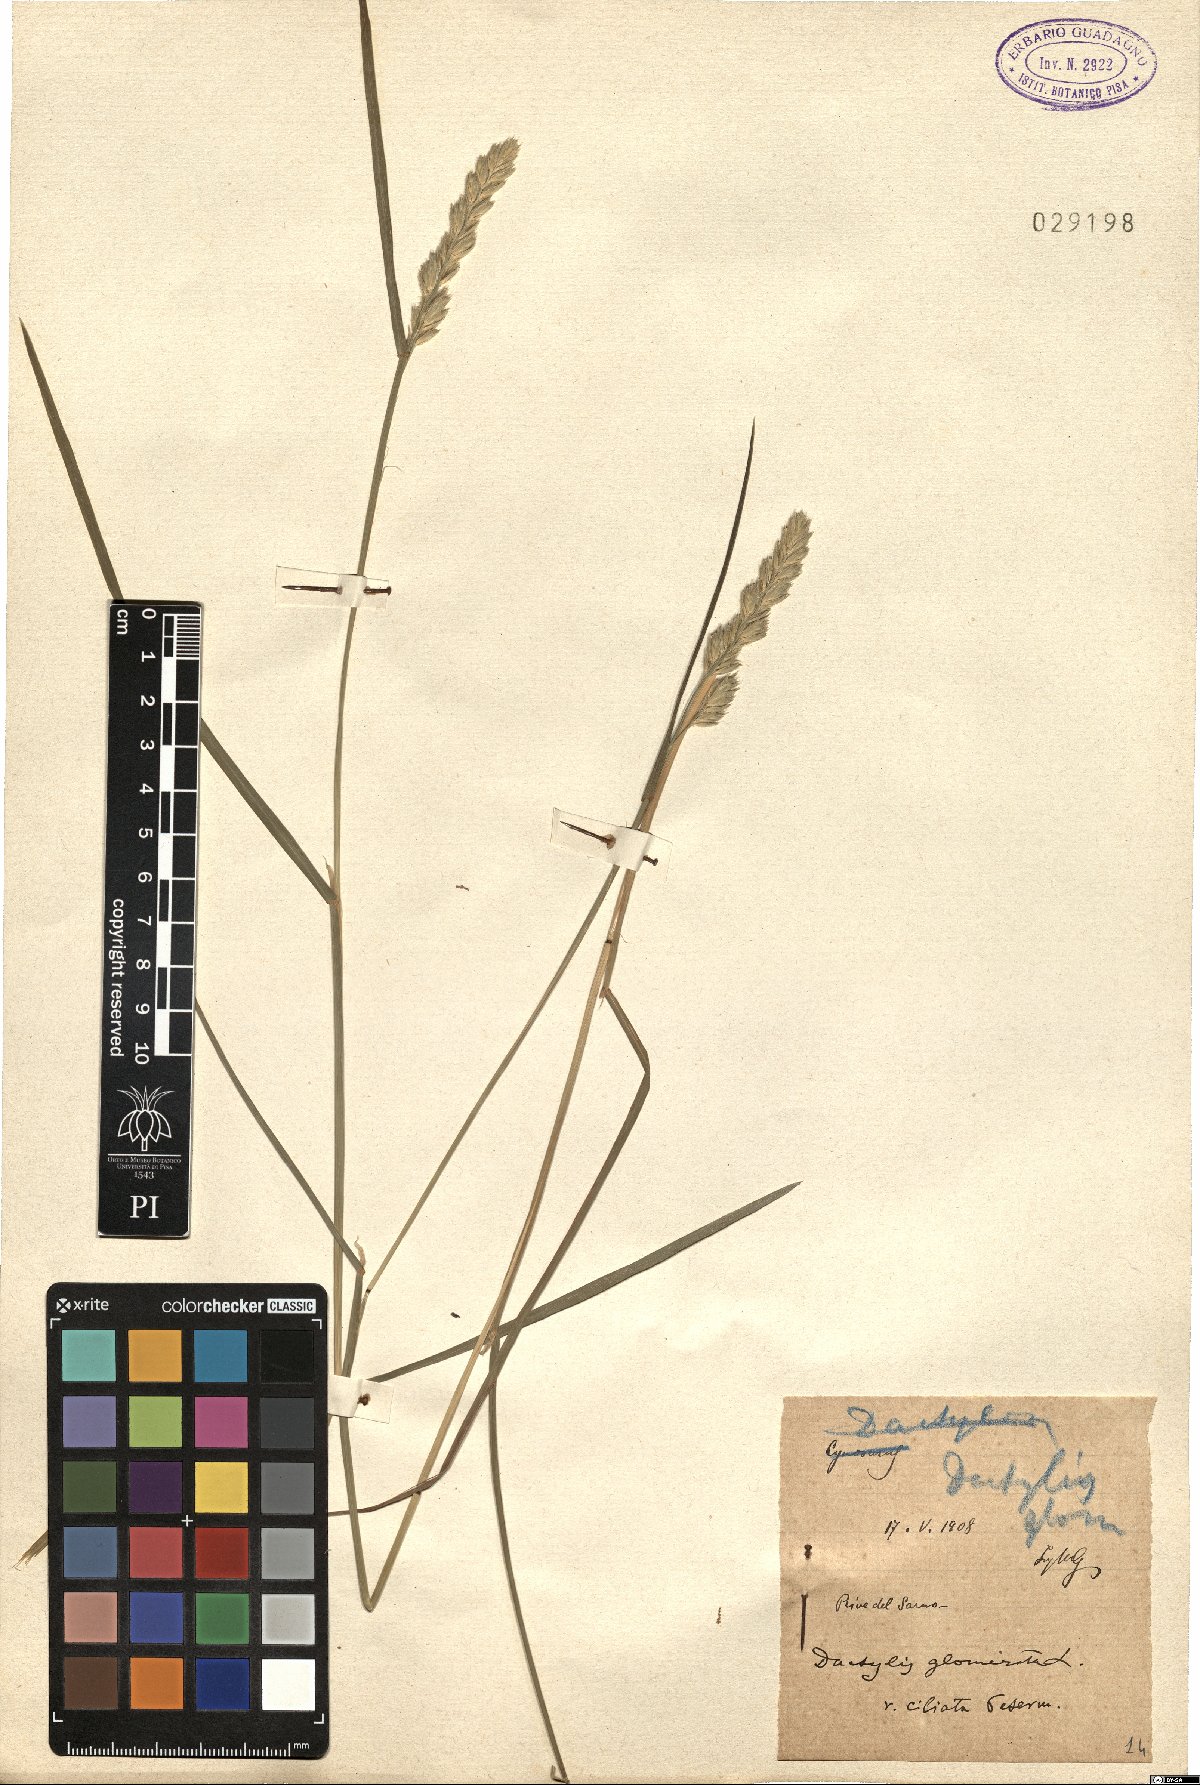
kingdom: Plantae
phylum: Tracheophyta
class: Liliopsida
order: Poales
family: Poaceae
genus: Dactylis
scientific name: Dactylis glomerata
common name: Orchardgrass
